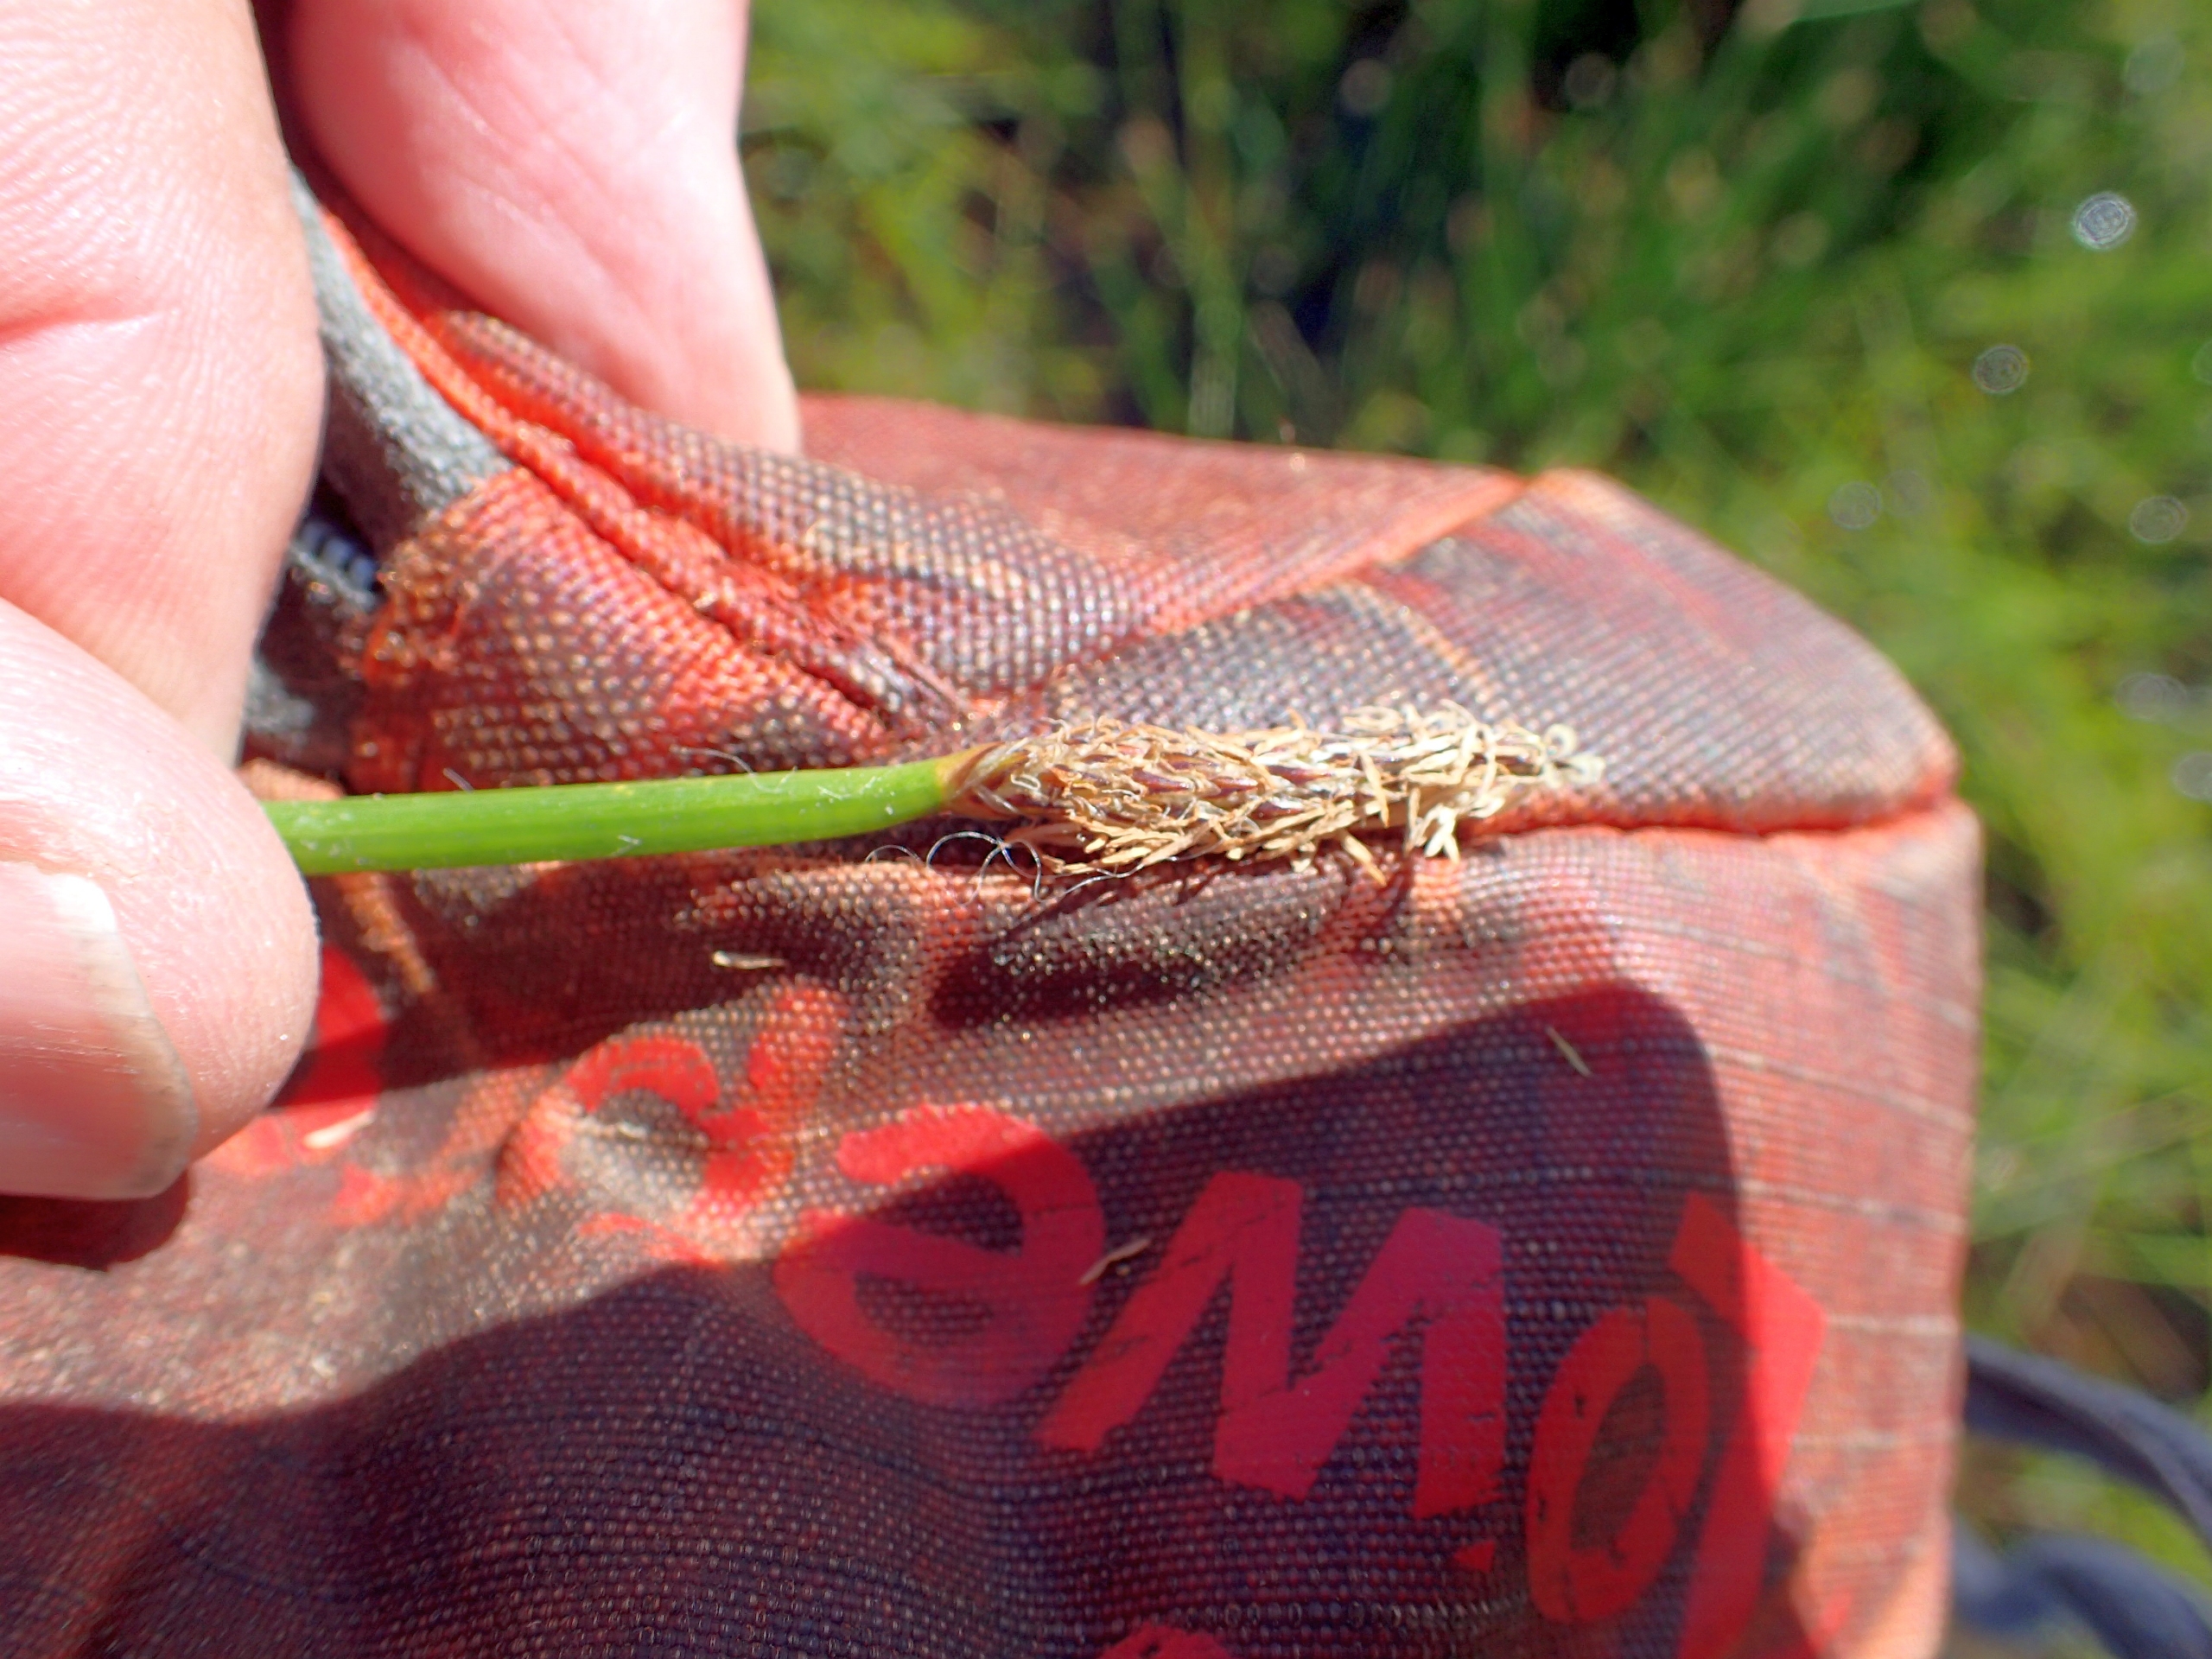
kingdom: Plantae
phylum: Tracheophyta
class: Liliopsida
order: Poales
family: Cyperaceae
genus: Eleocharis
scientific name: Eleocharis palustris
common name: Almindelig sumpstrå
